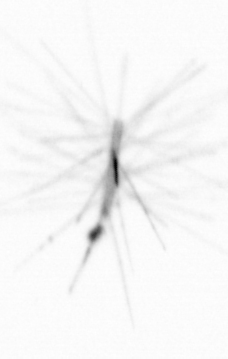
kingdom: Chromista
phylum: Ochrophyta
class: Bacillariophyceae
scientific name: Bacillariophyceae
